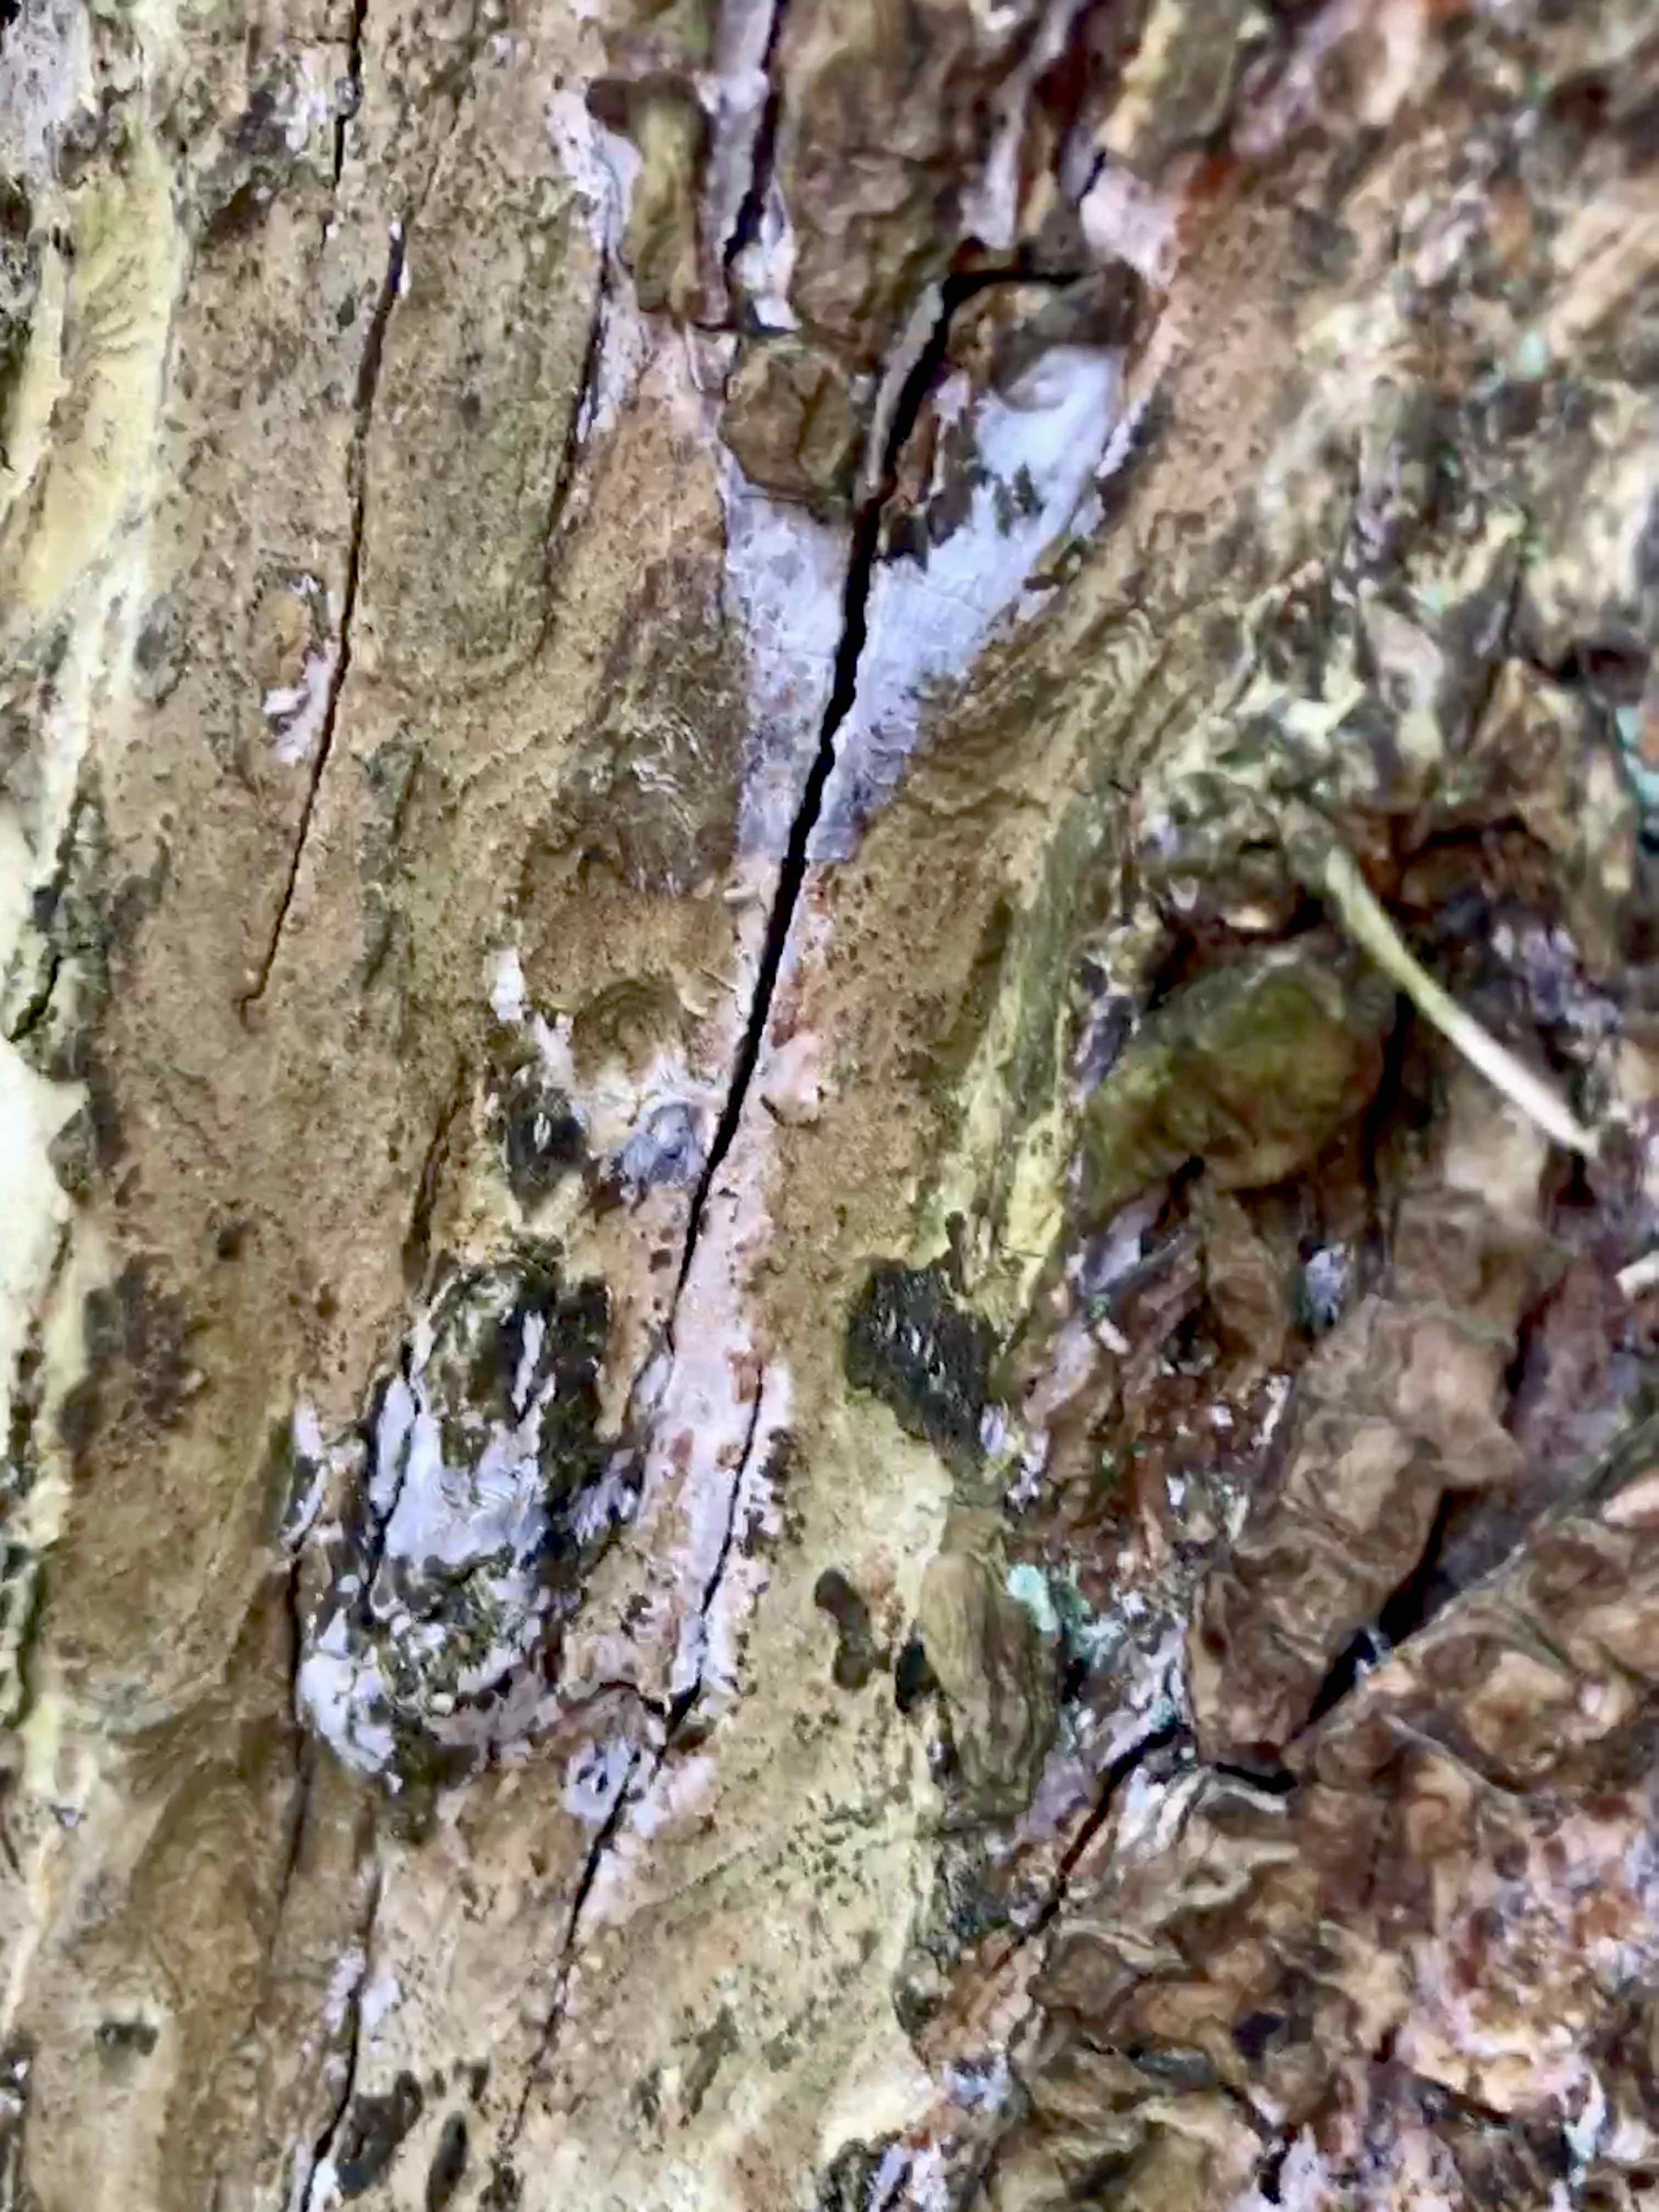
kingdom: Fungi
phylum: Basidiomycota
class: Agaricomycetes
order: Agaricales
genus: Dendrothele
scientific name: Dendrothele acerina
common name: navr-kalkplet
